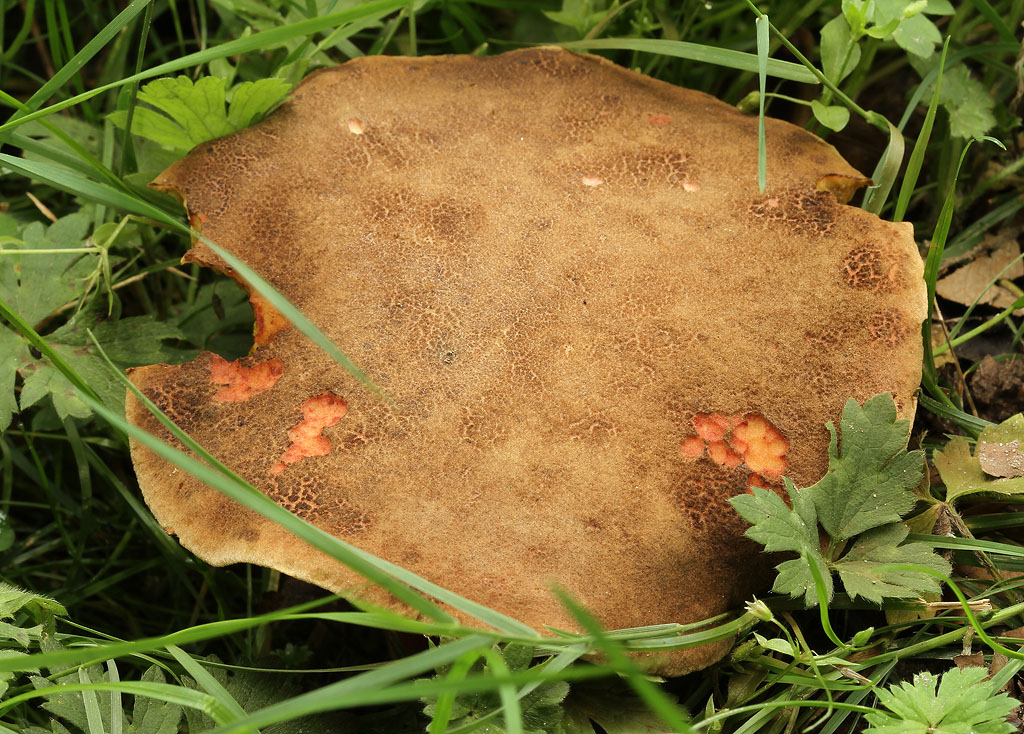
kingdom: Fungi
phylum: Basidiomycota
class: Agaricomycetes
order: Boletales
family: Boletaceae
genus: Xerocomellus
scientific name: Xerocomellus chrysenteron
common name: rødsprukken rørhat
